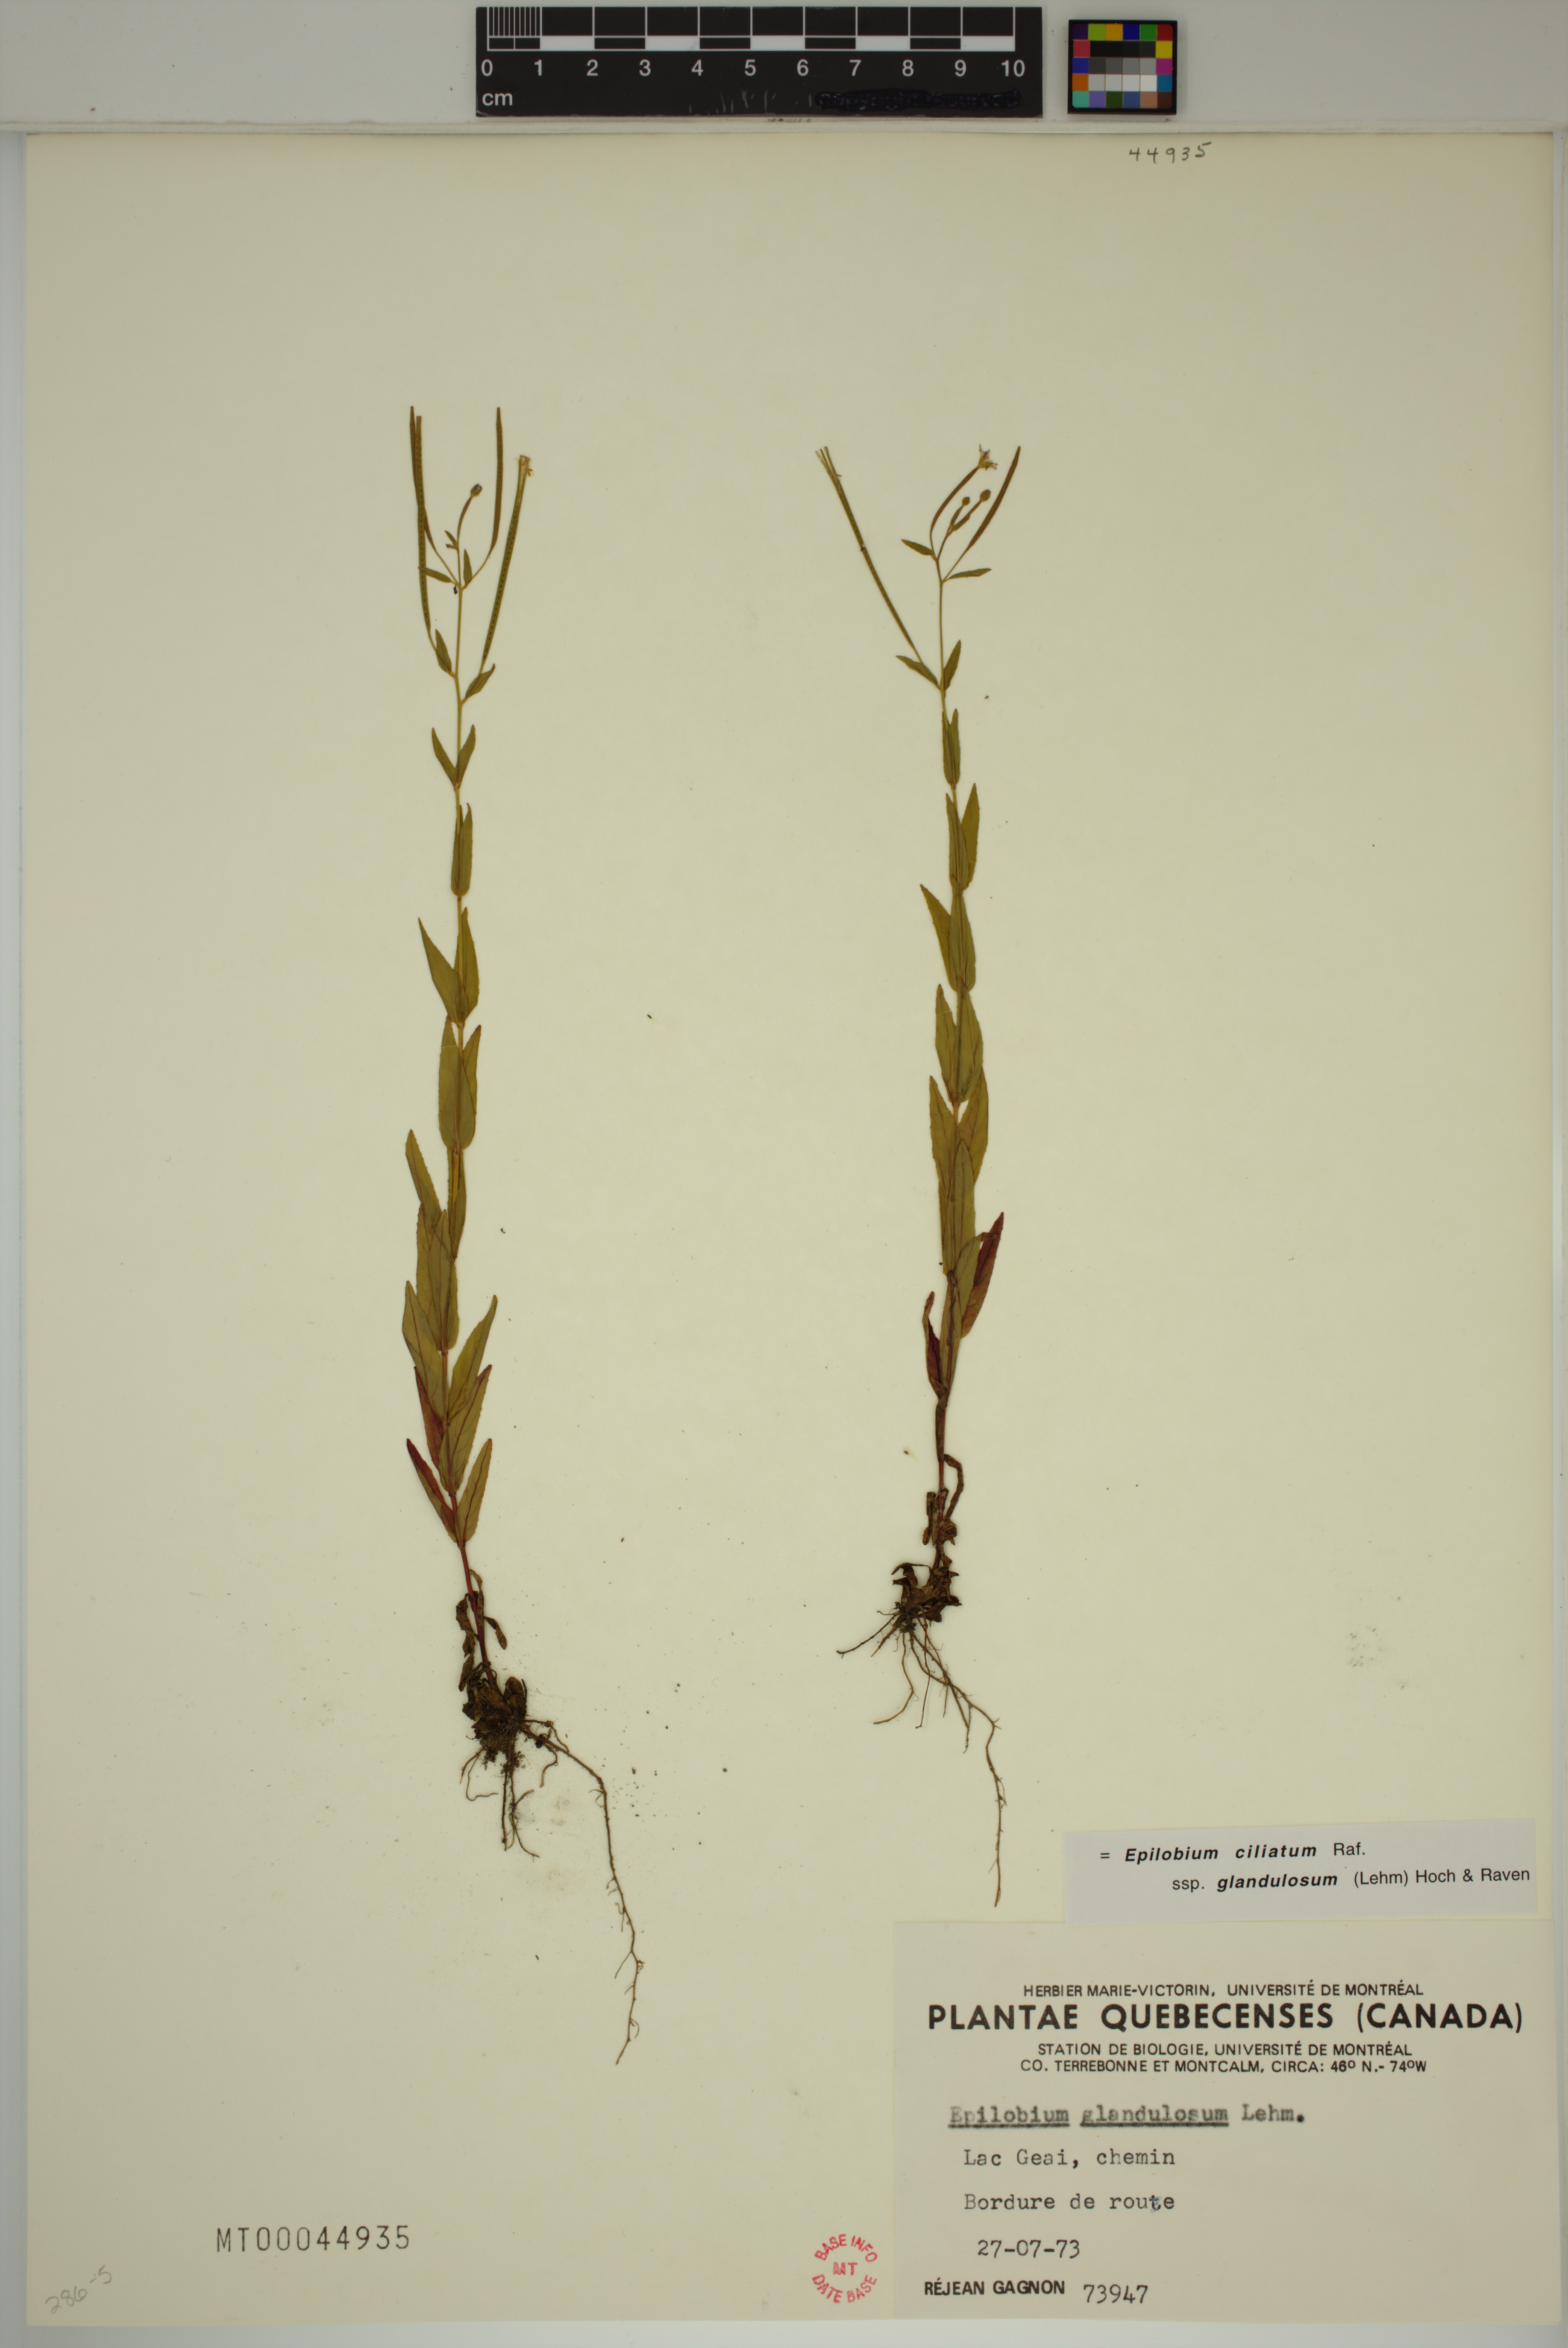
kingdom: Plantae
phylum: Tracheophyta
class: Magnoliopsida
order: Myrtales
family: Onagraceae
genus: Epilobium
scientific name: Epilobium ciliatum
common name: American willowherb
